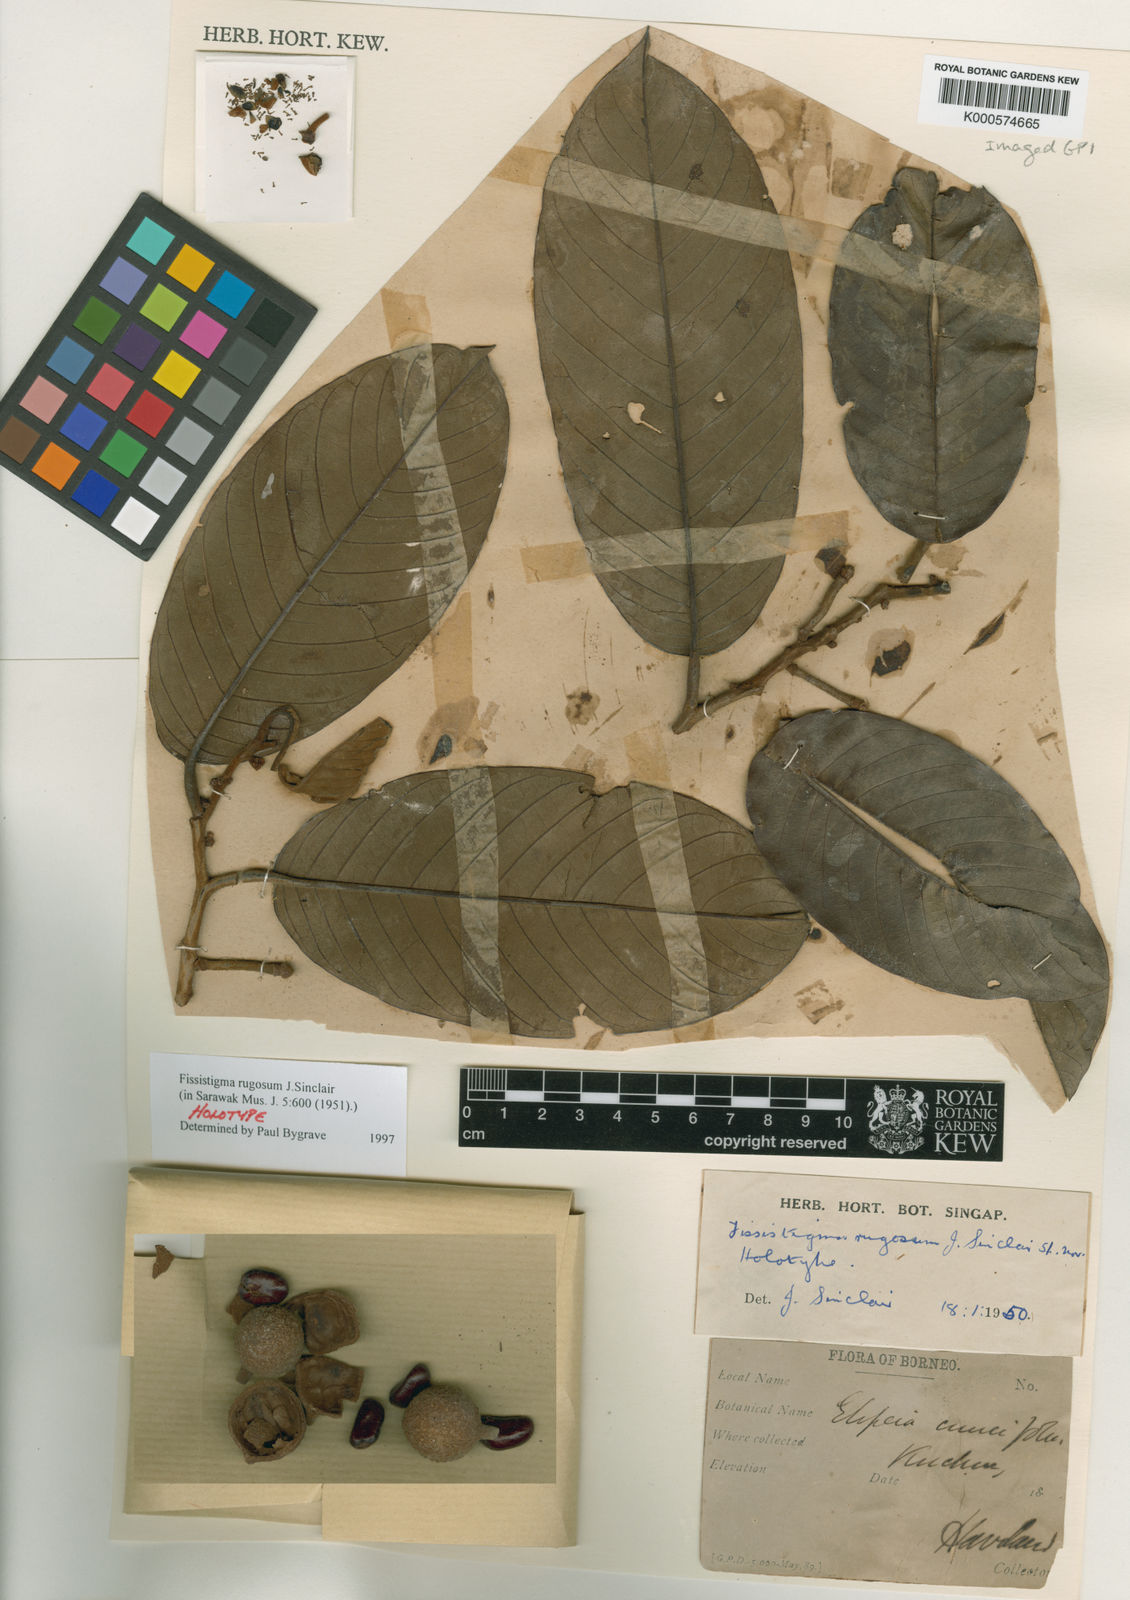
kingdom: Plantae
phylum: Tracheophyta
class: Magnoliopsida
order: Magnoliales
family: Annonaceae
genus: Fissistigma
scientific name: Fissistigma rugosum
